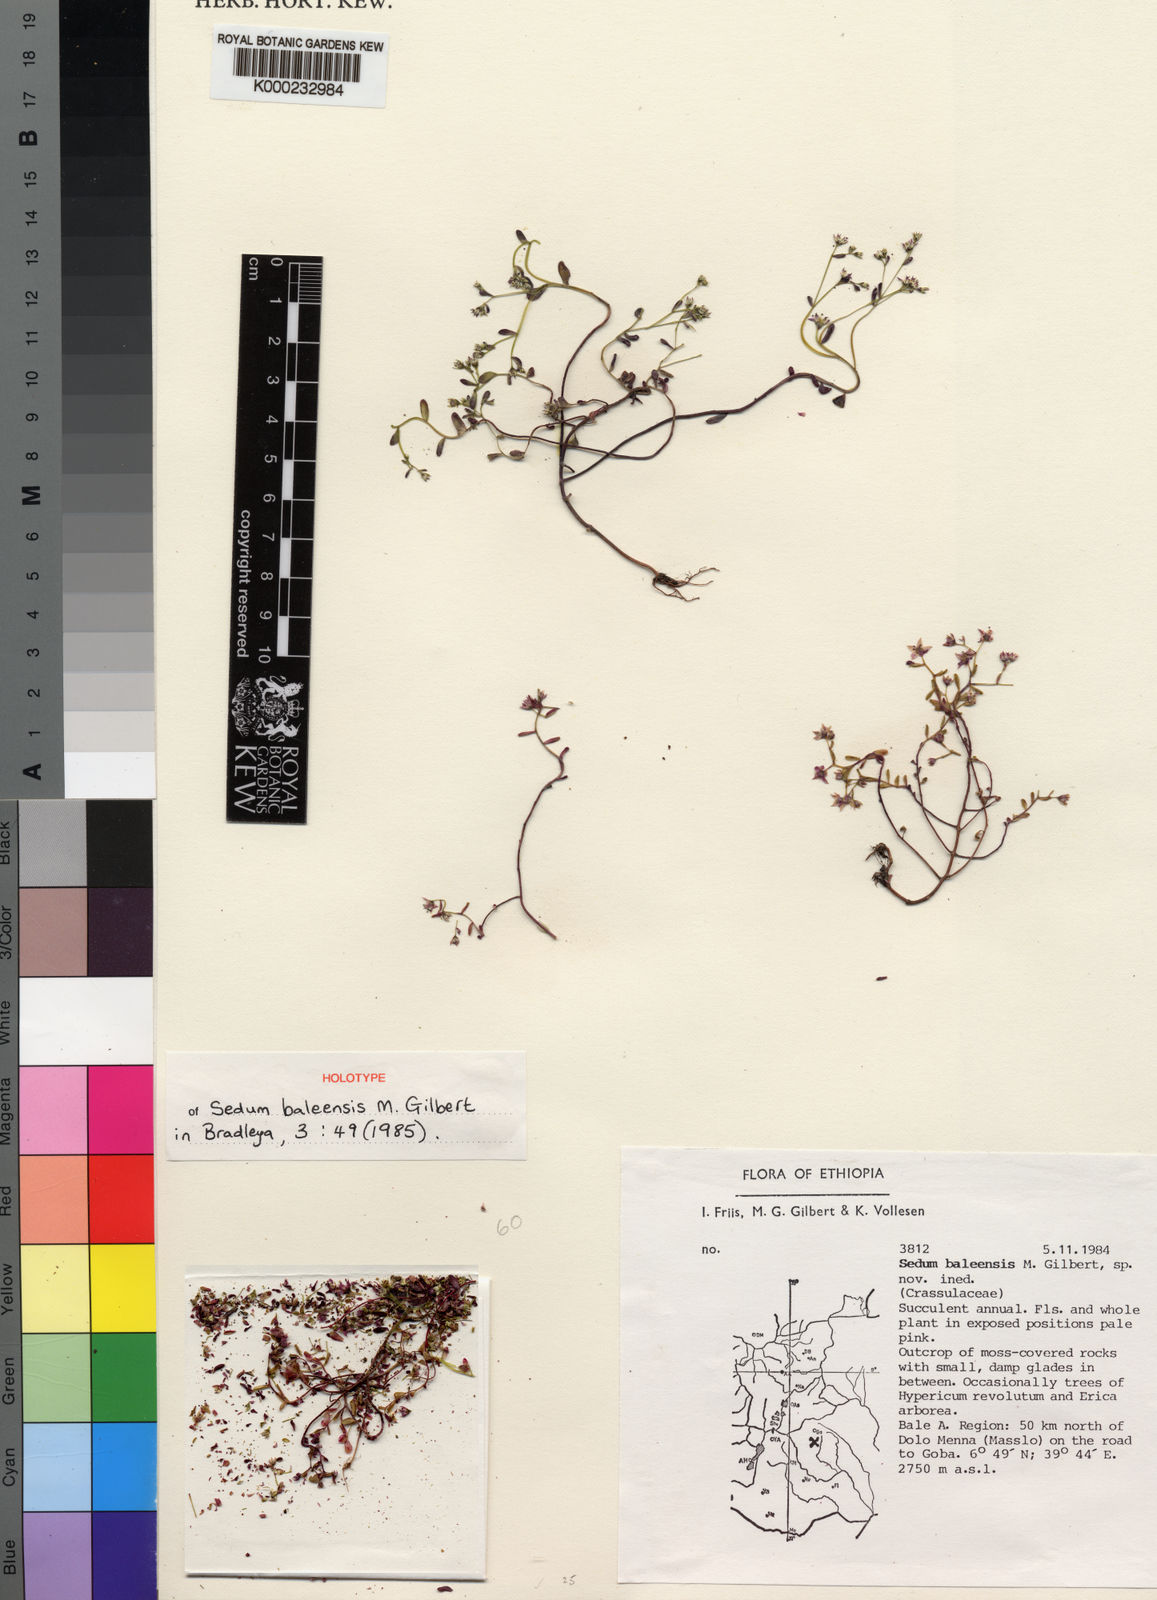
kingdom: Plantae
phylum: Tracheophyta
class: Magnoliopsida
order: Saxifragales
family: Crassulaceae
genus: Sedum
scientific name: Sedum baleensis
